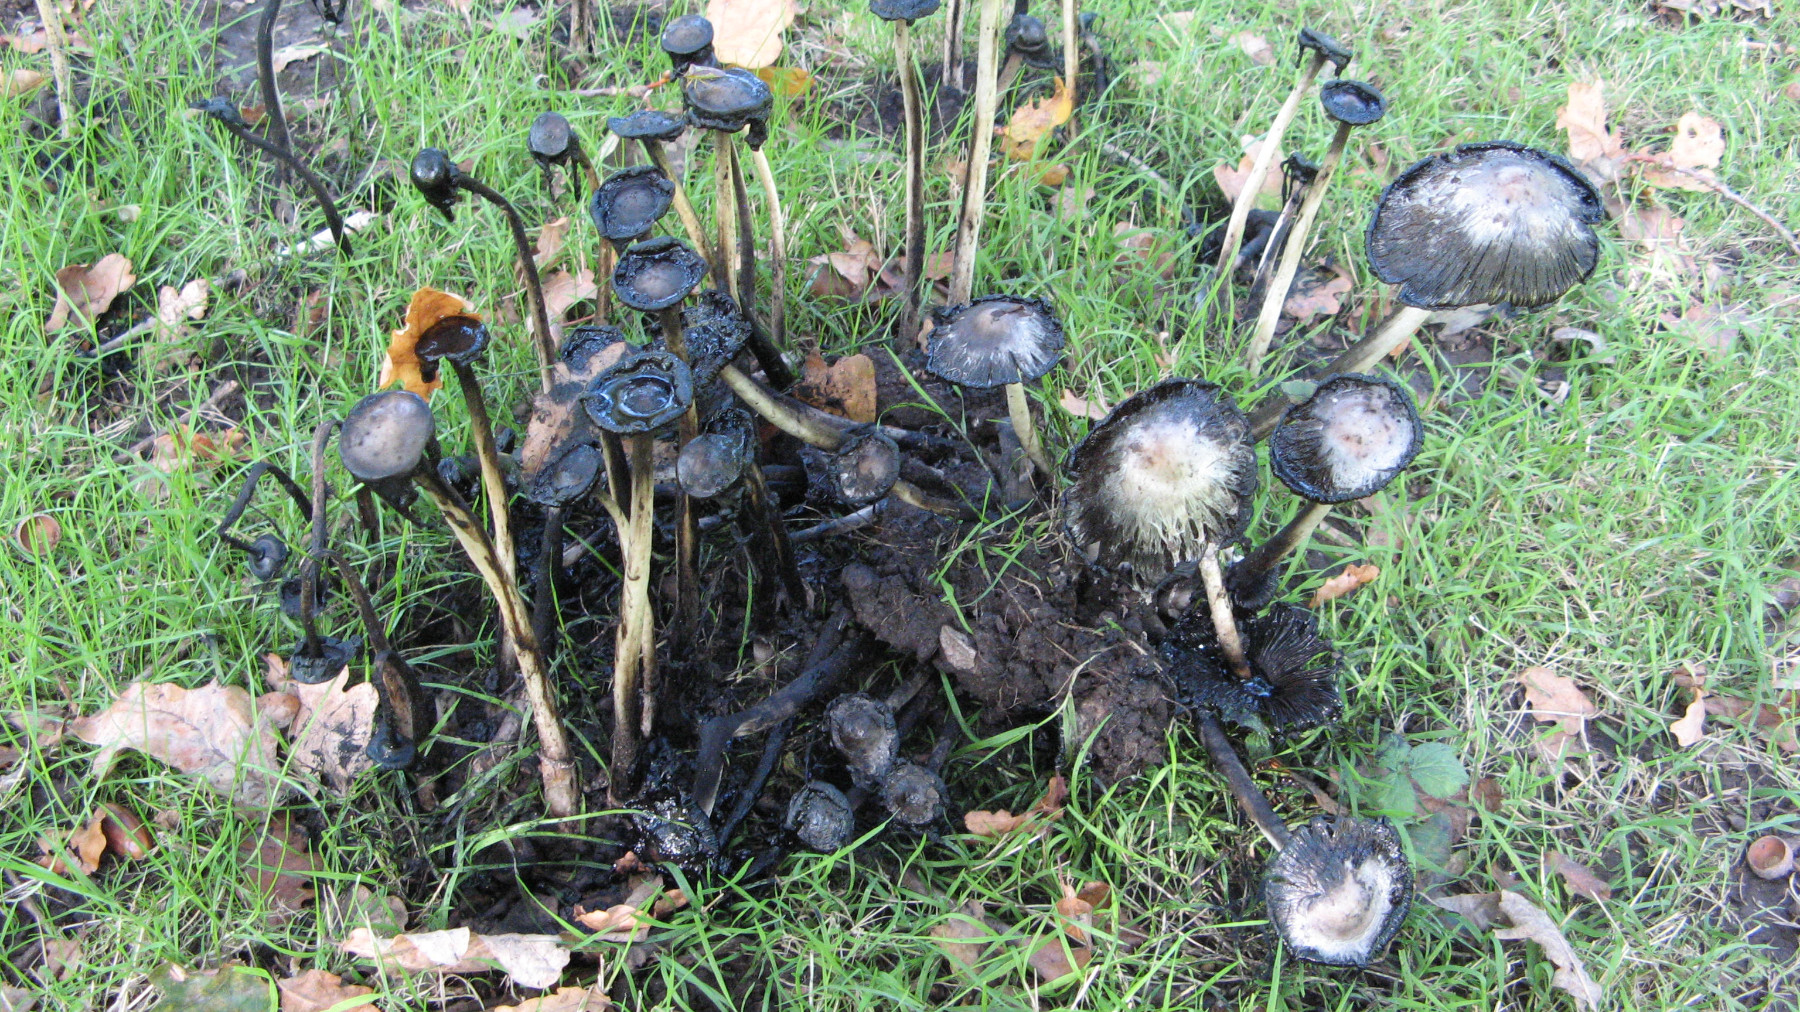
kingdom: Fungi
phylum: Basidiomycota
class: Agaricomycetes
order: Agaricales
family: Agaricaceae
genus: Coprinus
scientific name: Coprinus comatus
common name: stor parykhat
